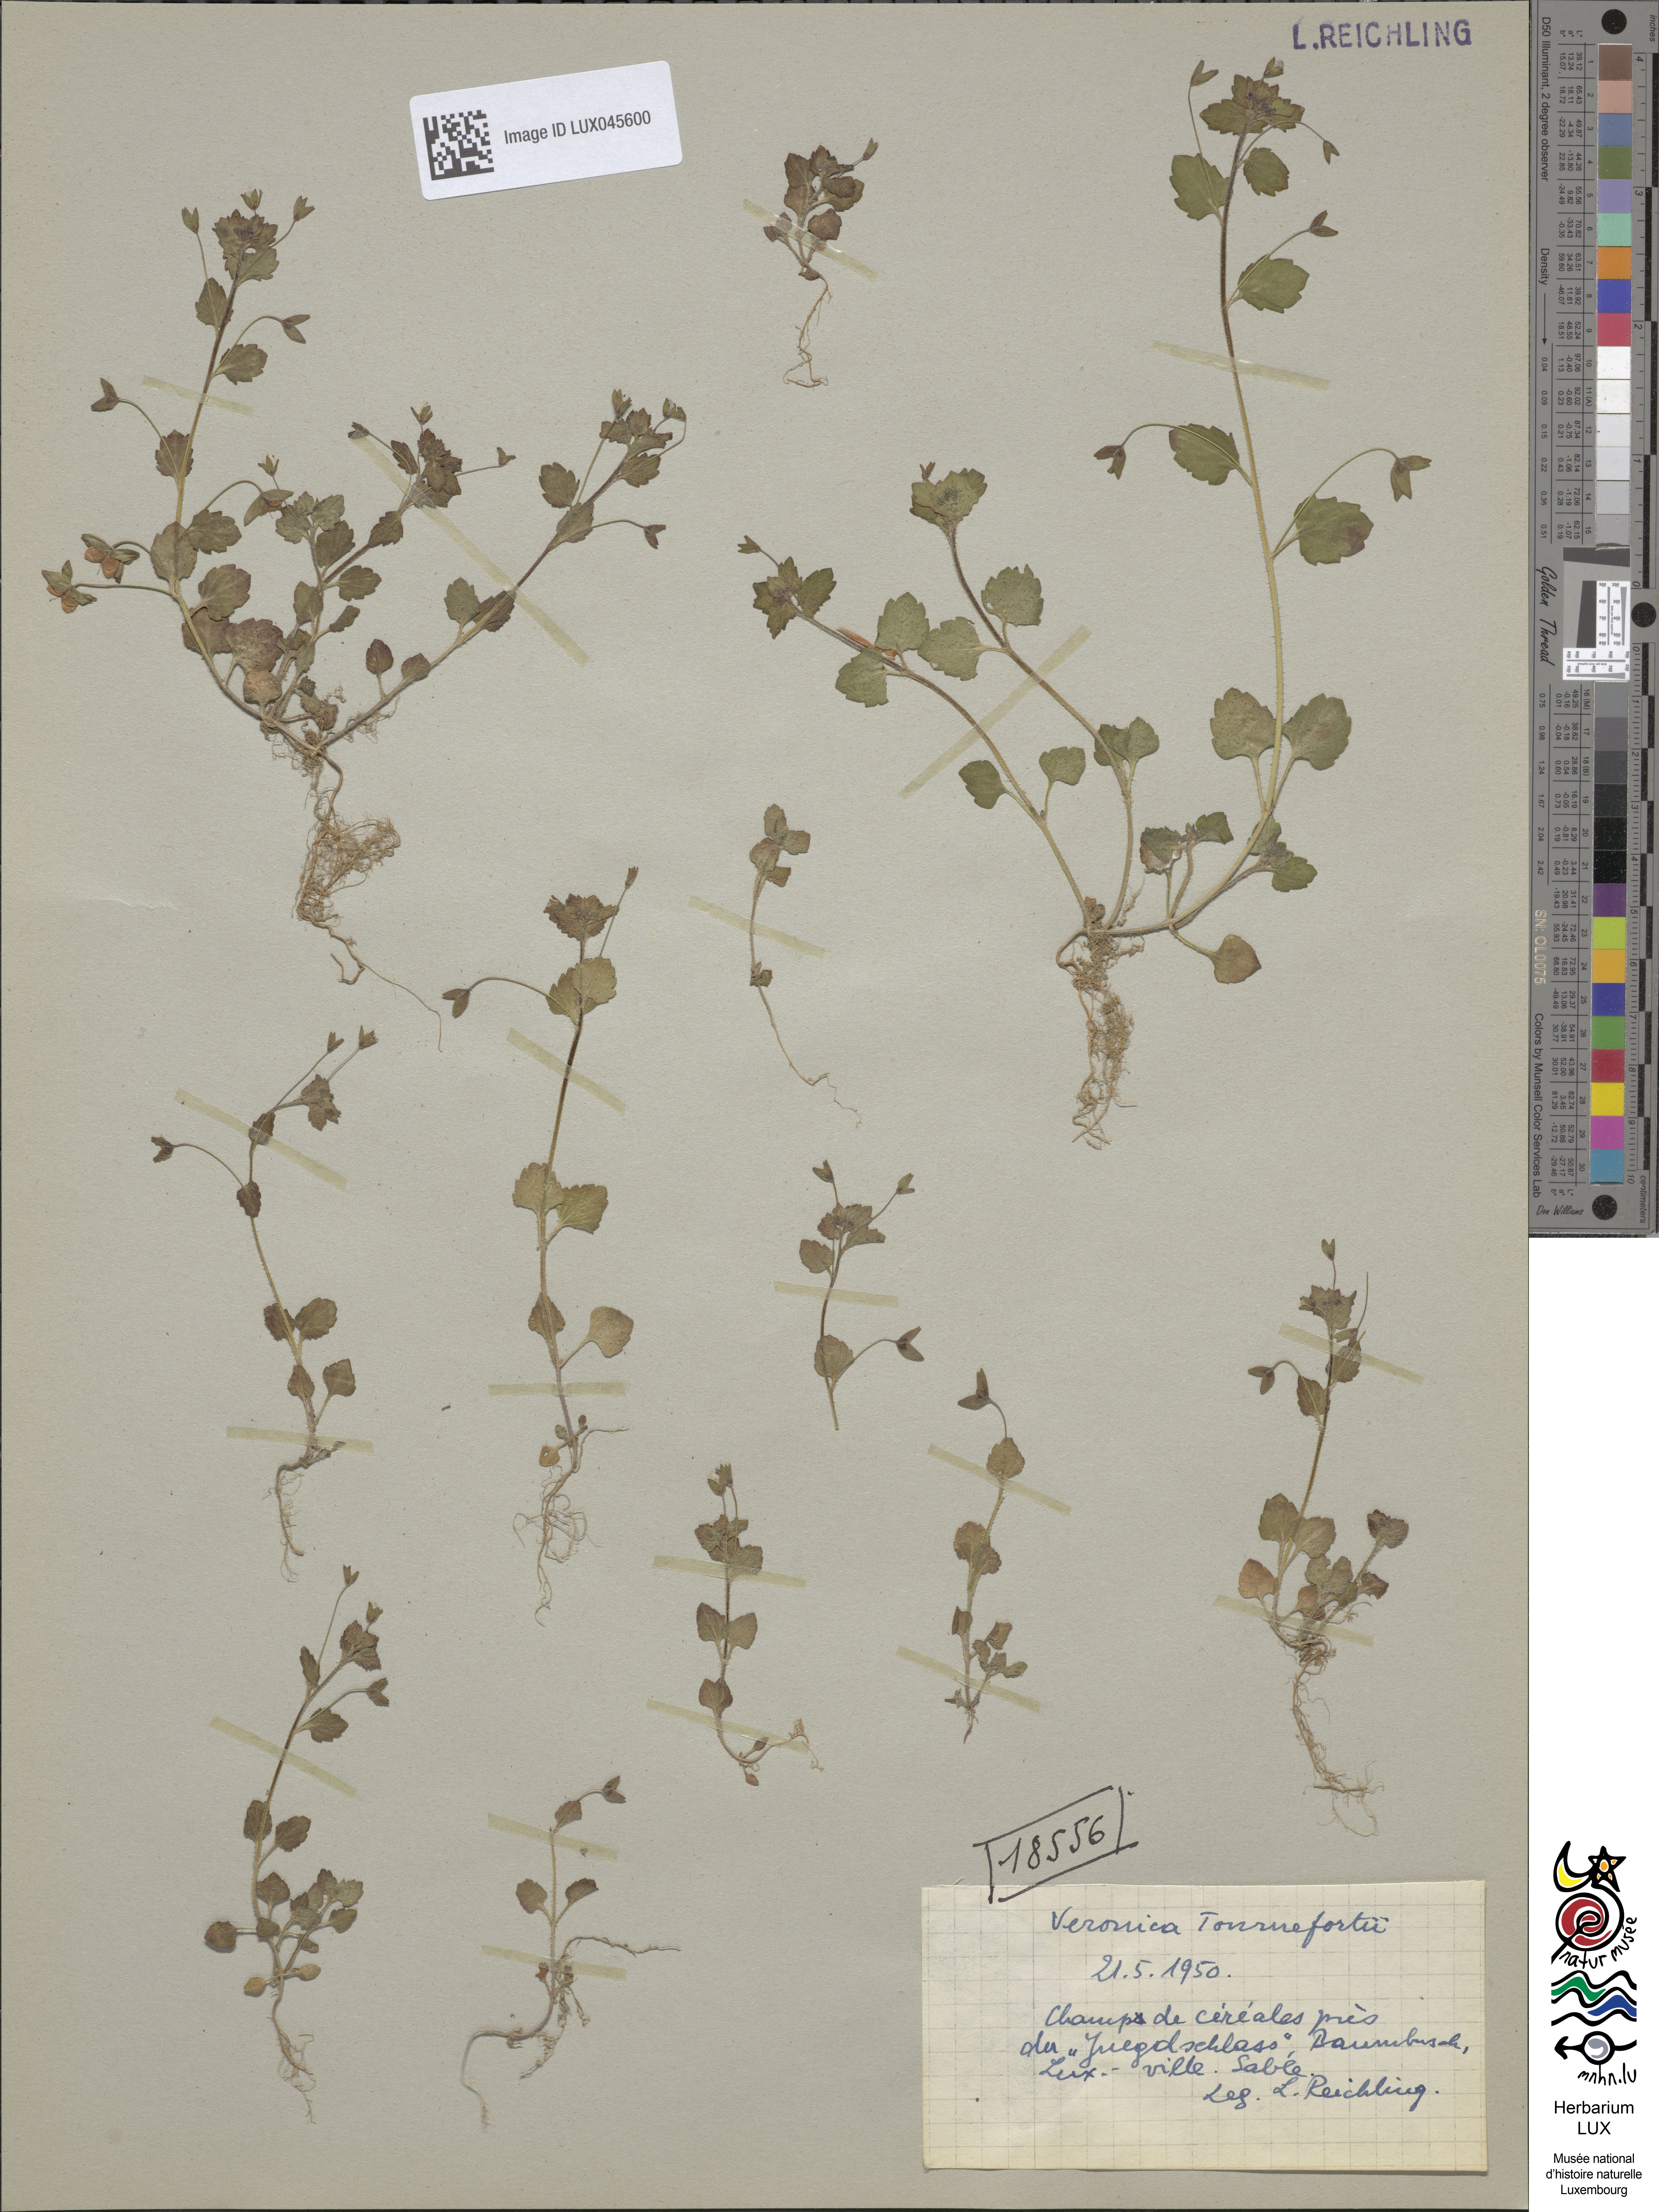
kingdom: Plantae
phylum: Tracheophyta
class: Magnoliopsida
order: Lamiales
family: Plantaginaceae
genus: Veronica
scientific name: Veronica persica
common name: Common field-speedwell
